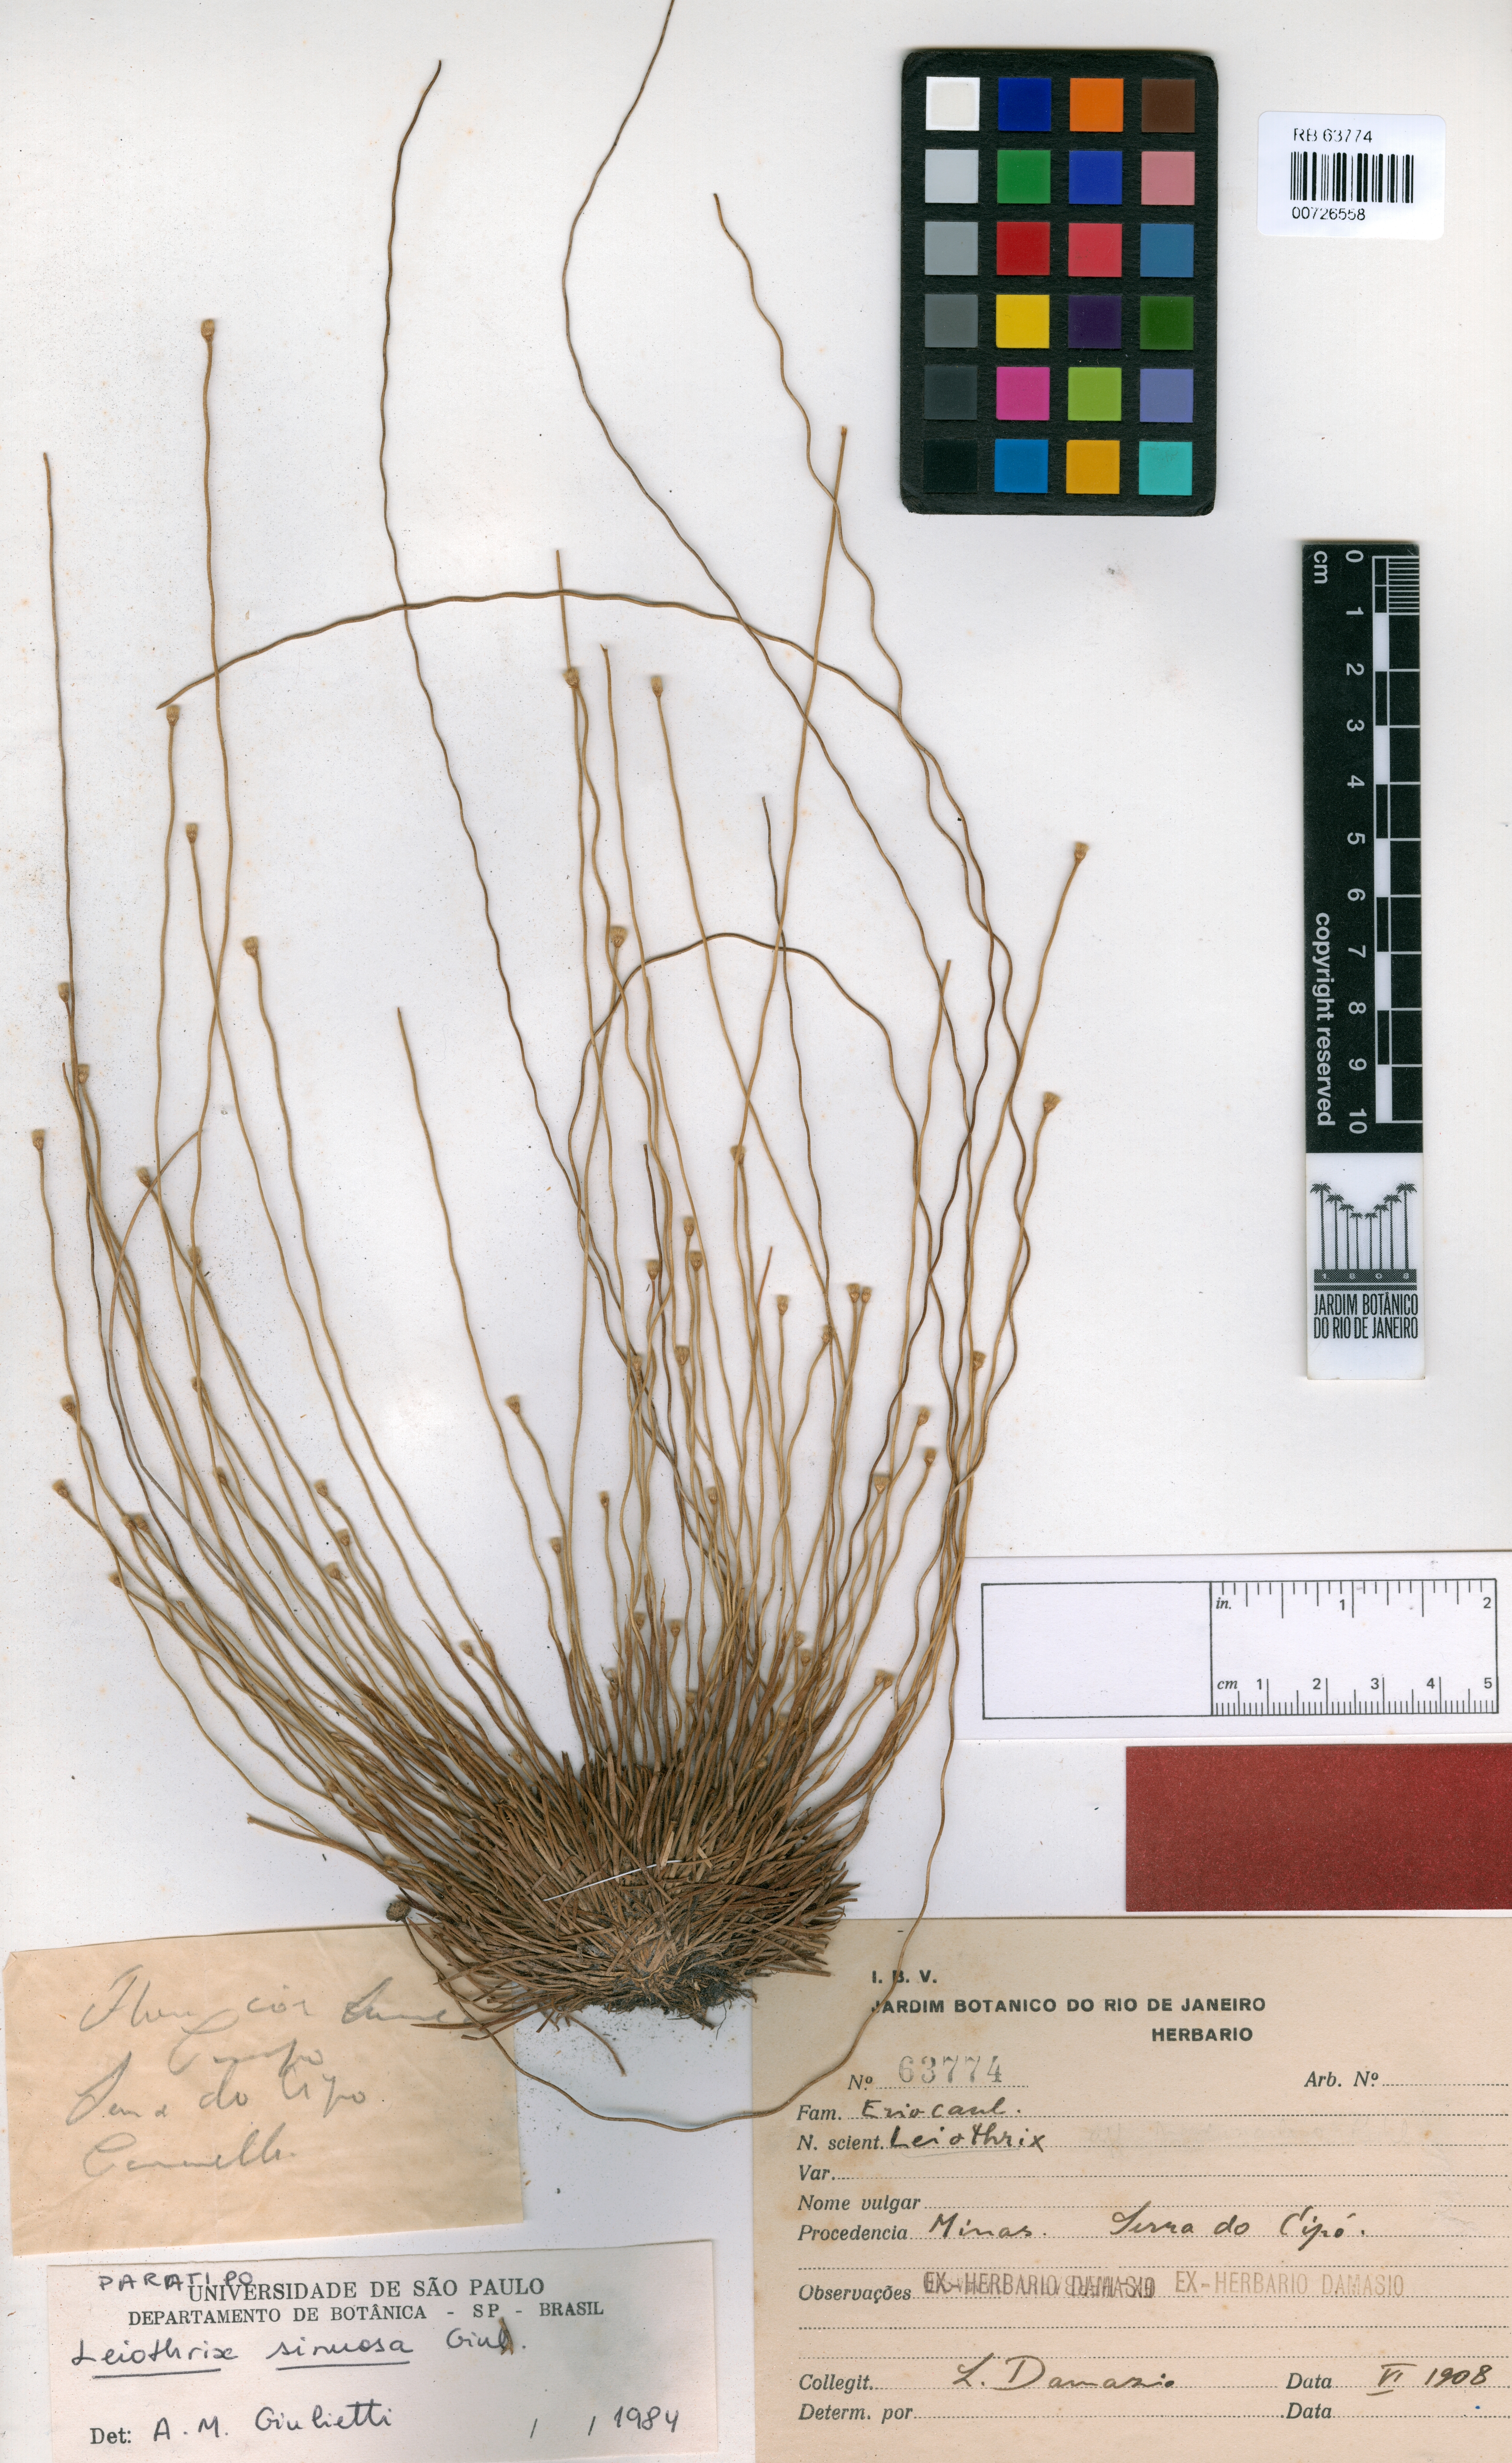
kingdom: Plantae
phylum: Tracheophyta
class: Liliopsida
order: Poales
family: Eriocaulaceae
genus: Leiothrix
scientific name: Leiothrix sinuosa
